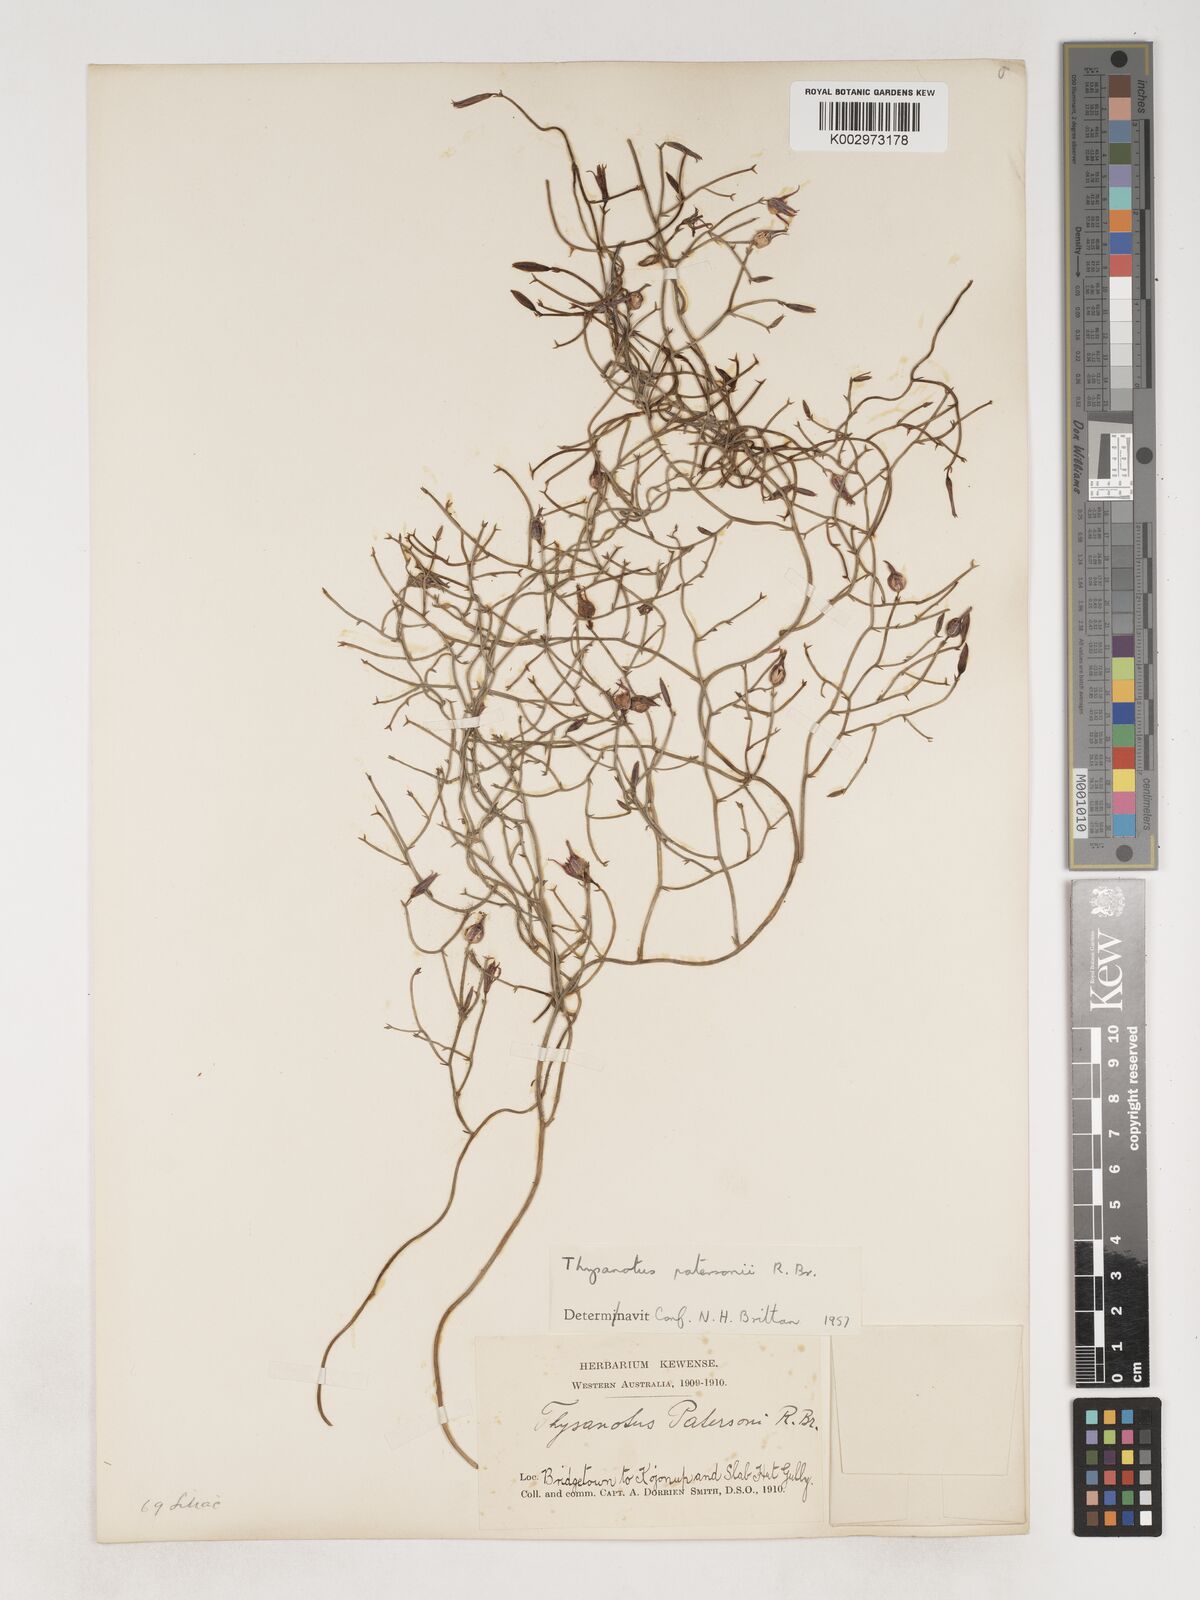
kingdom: Plantae
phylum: Tracheophyta
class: Liliopsida
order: Asparagales
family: Asparagaceae
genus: Thysanotus
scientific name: Thysanotus patersonii
